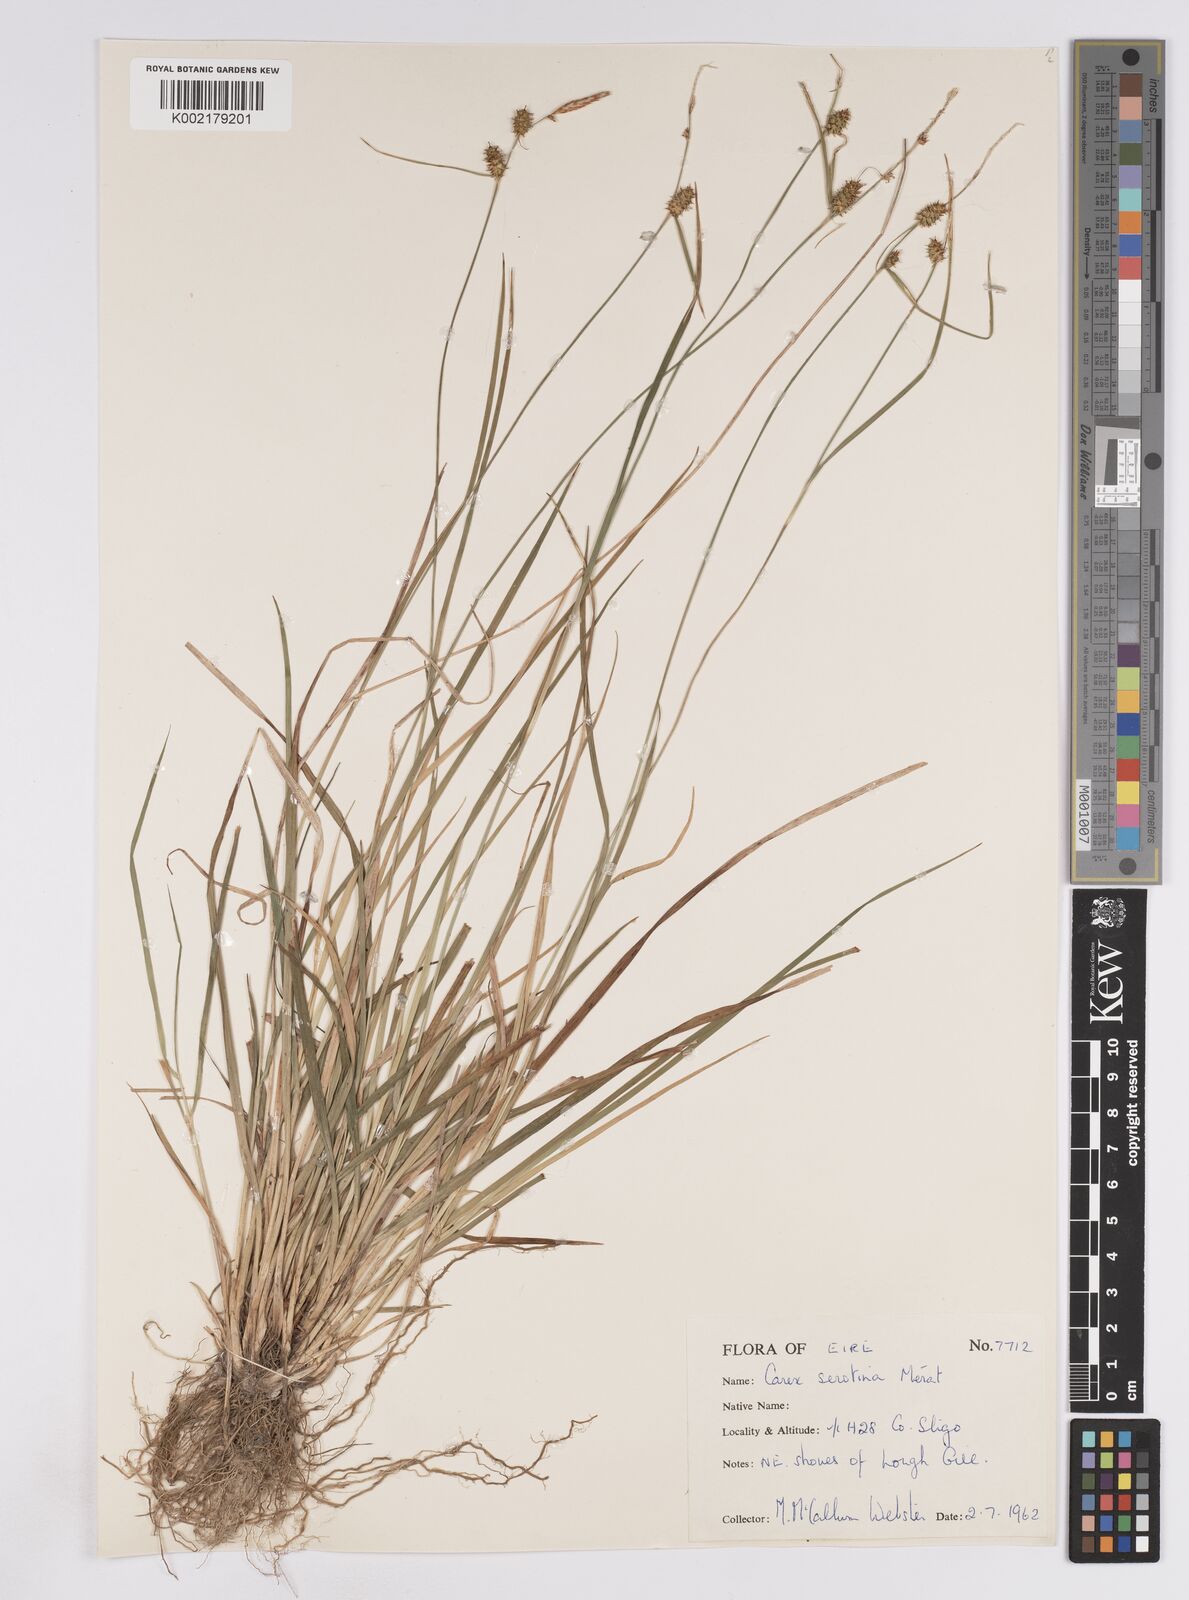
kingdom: Plantae
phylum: Tracheophyta
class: Liliopsida
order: Poales
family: Cyperaceae
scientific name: Cyperaceae
